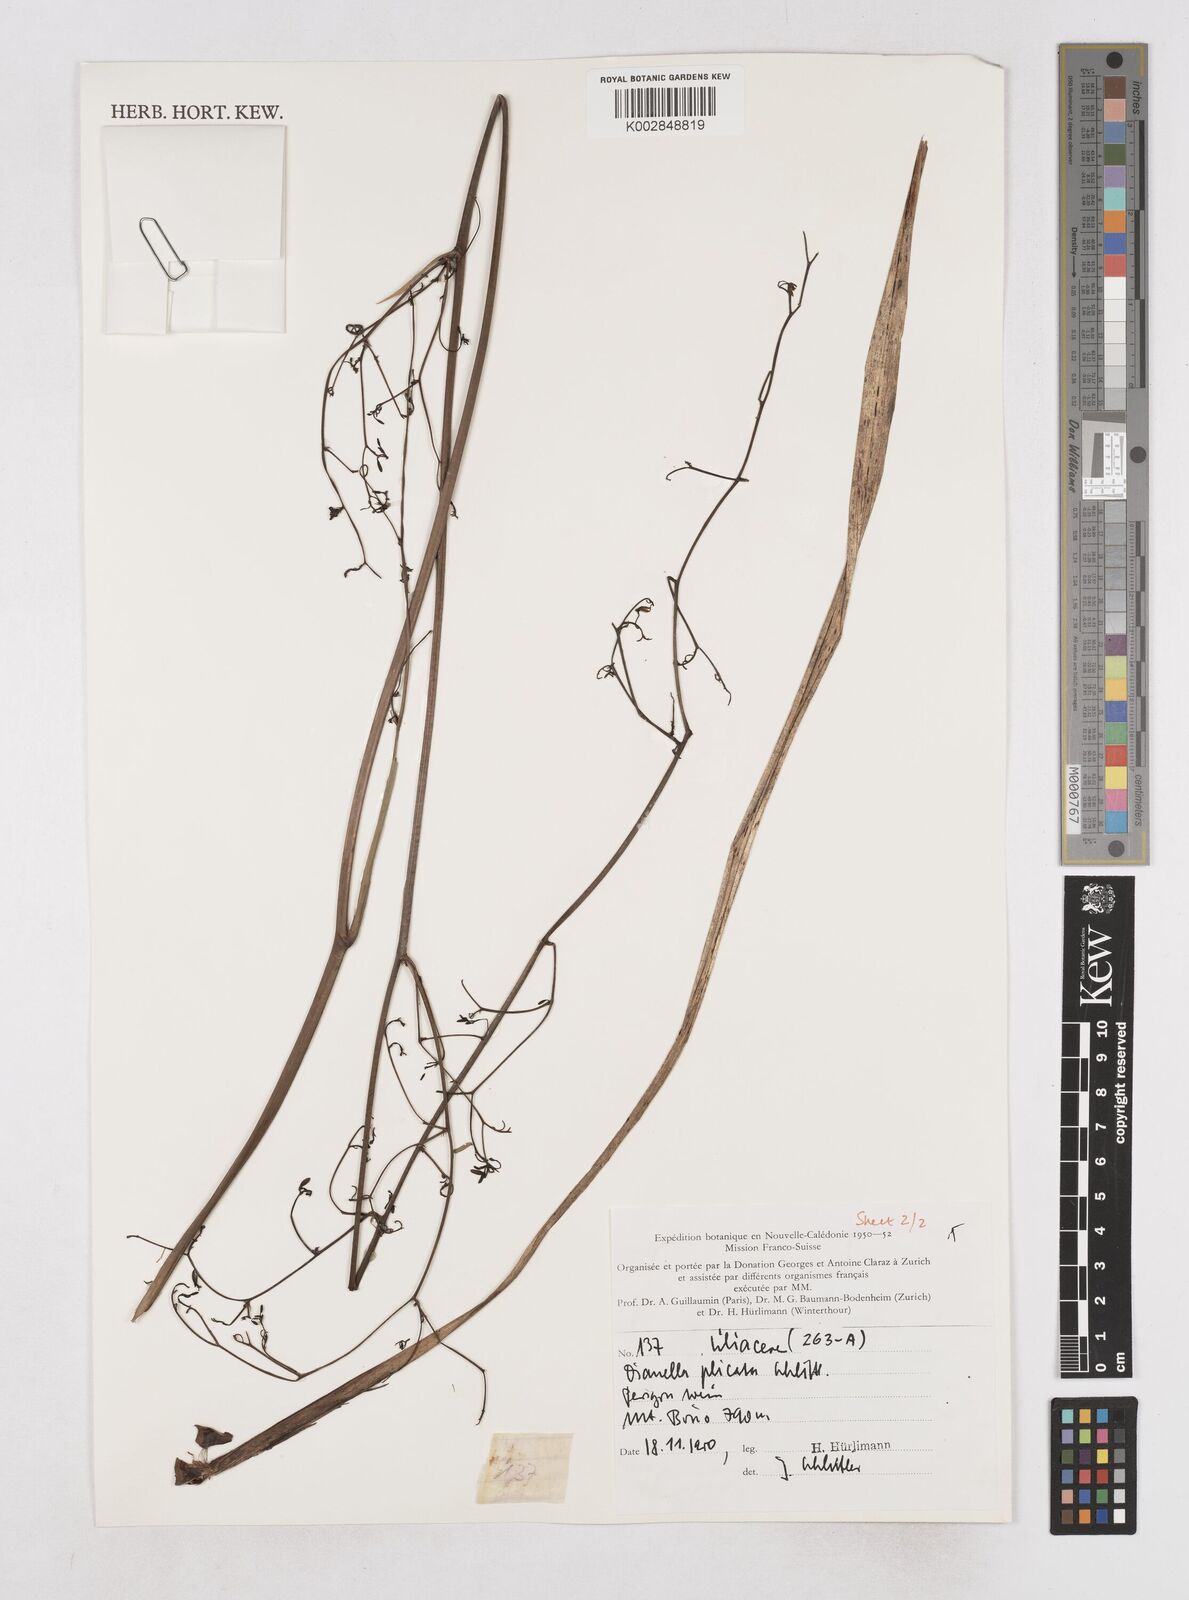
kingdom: Plantae
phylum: Tracheophyta
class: Liliopsida
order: Asparagales
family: Asphodelaceae
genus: Dianella
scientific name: Dianella plicata
